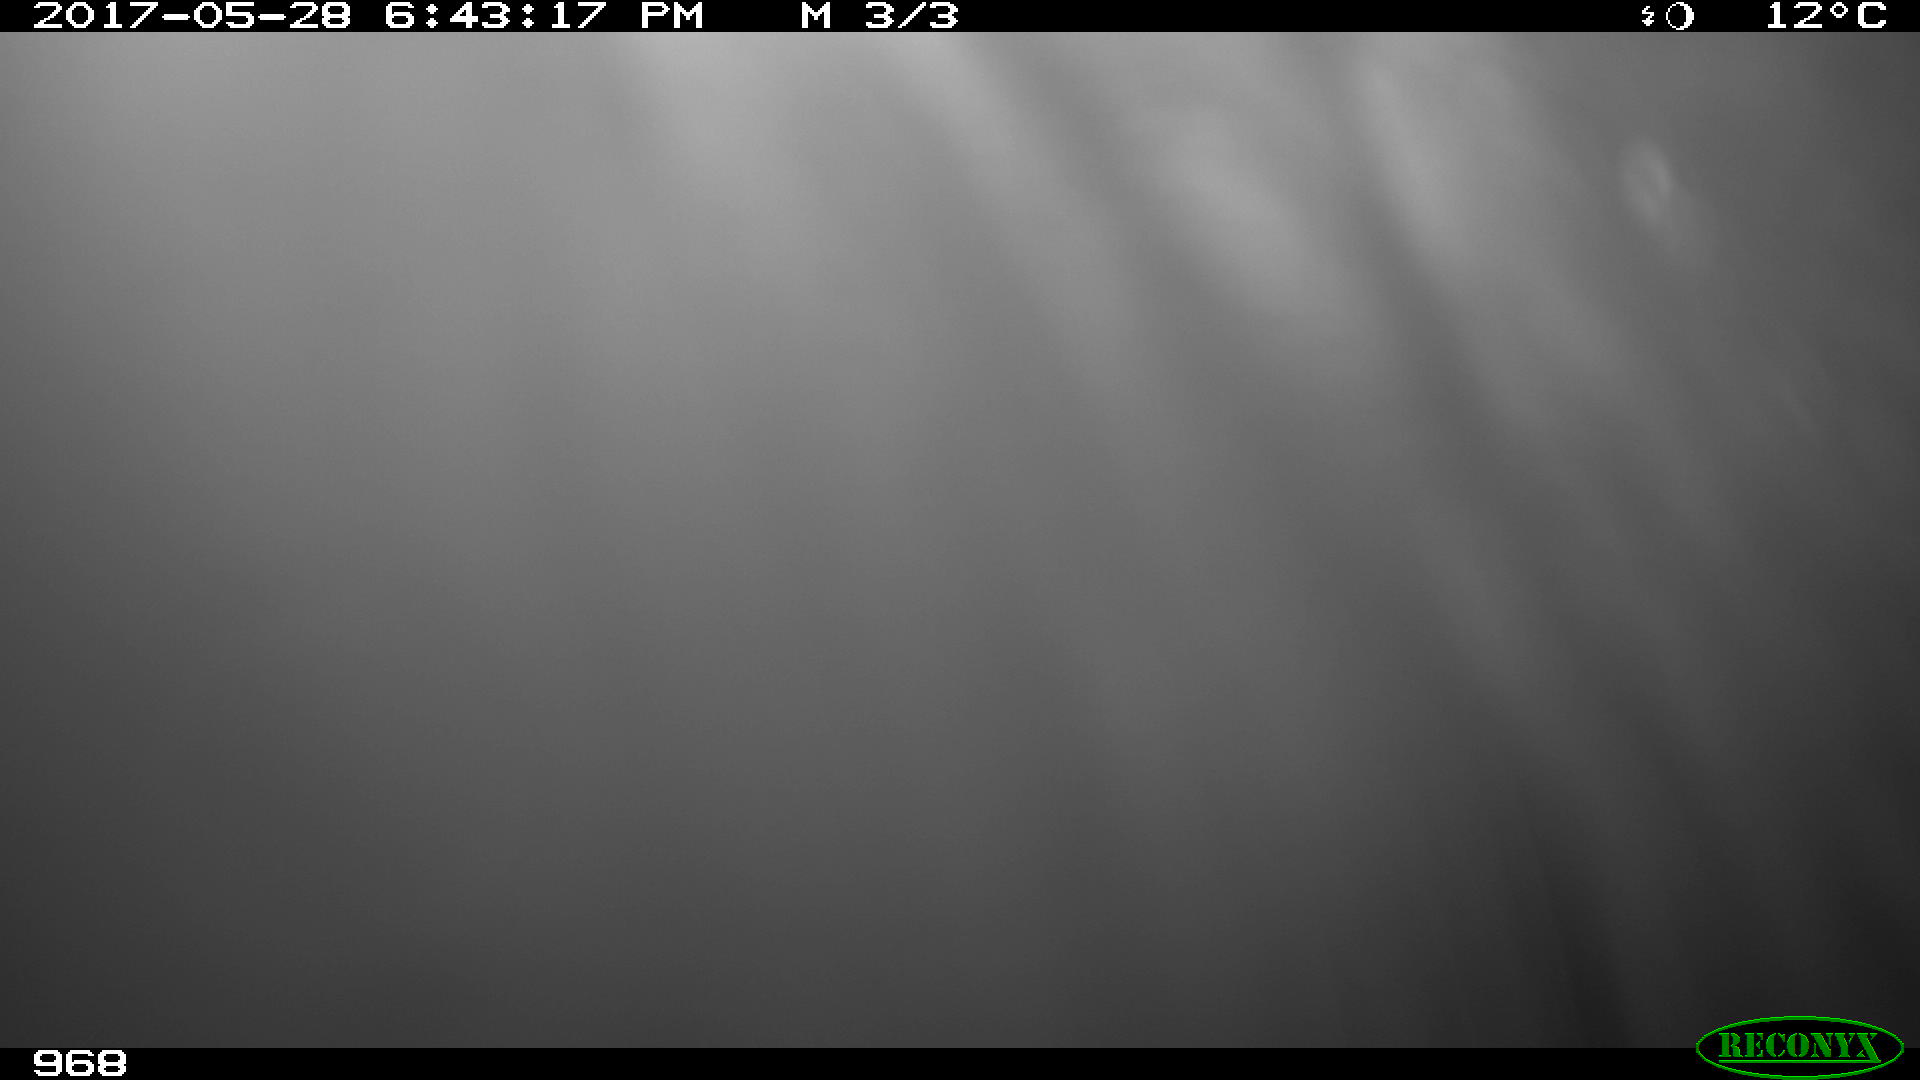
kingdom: Animalia
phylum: Chordata
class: Mammalia
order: Artiodactyla
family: Bovidae
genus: Bos
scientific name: Bos taurus
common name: Domesticated cattle
